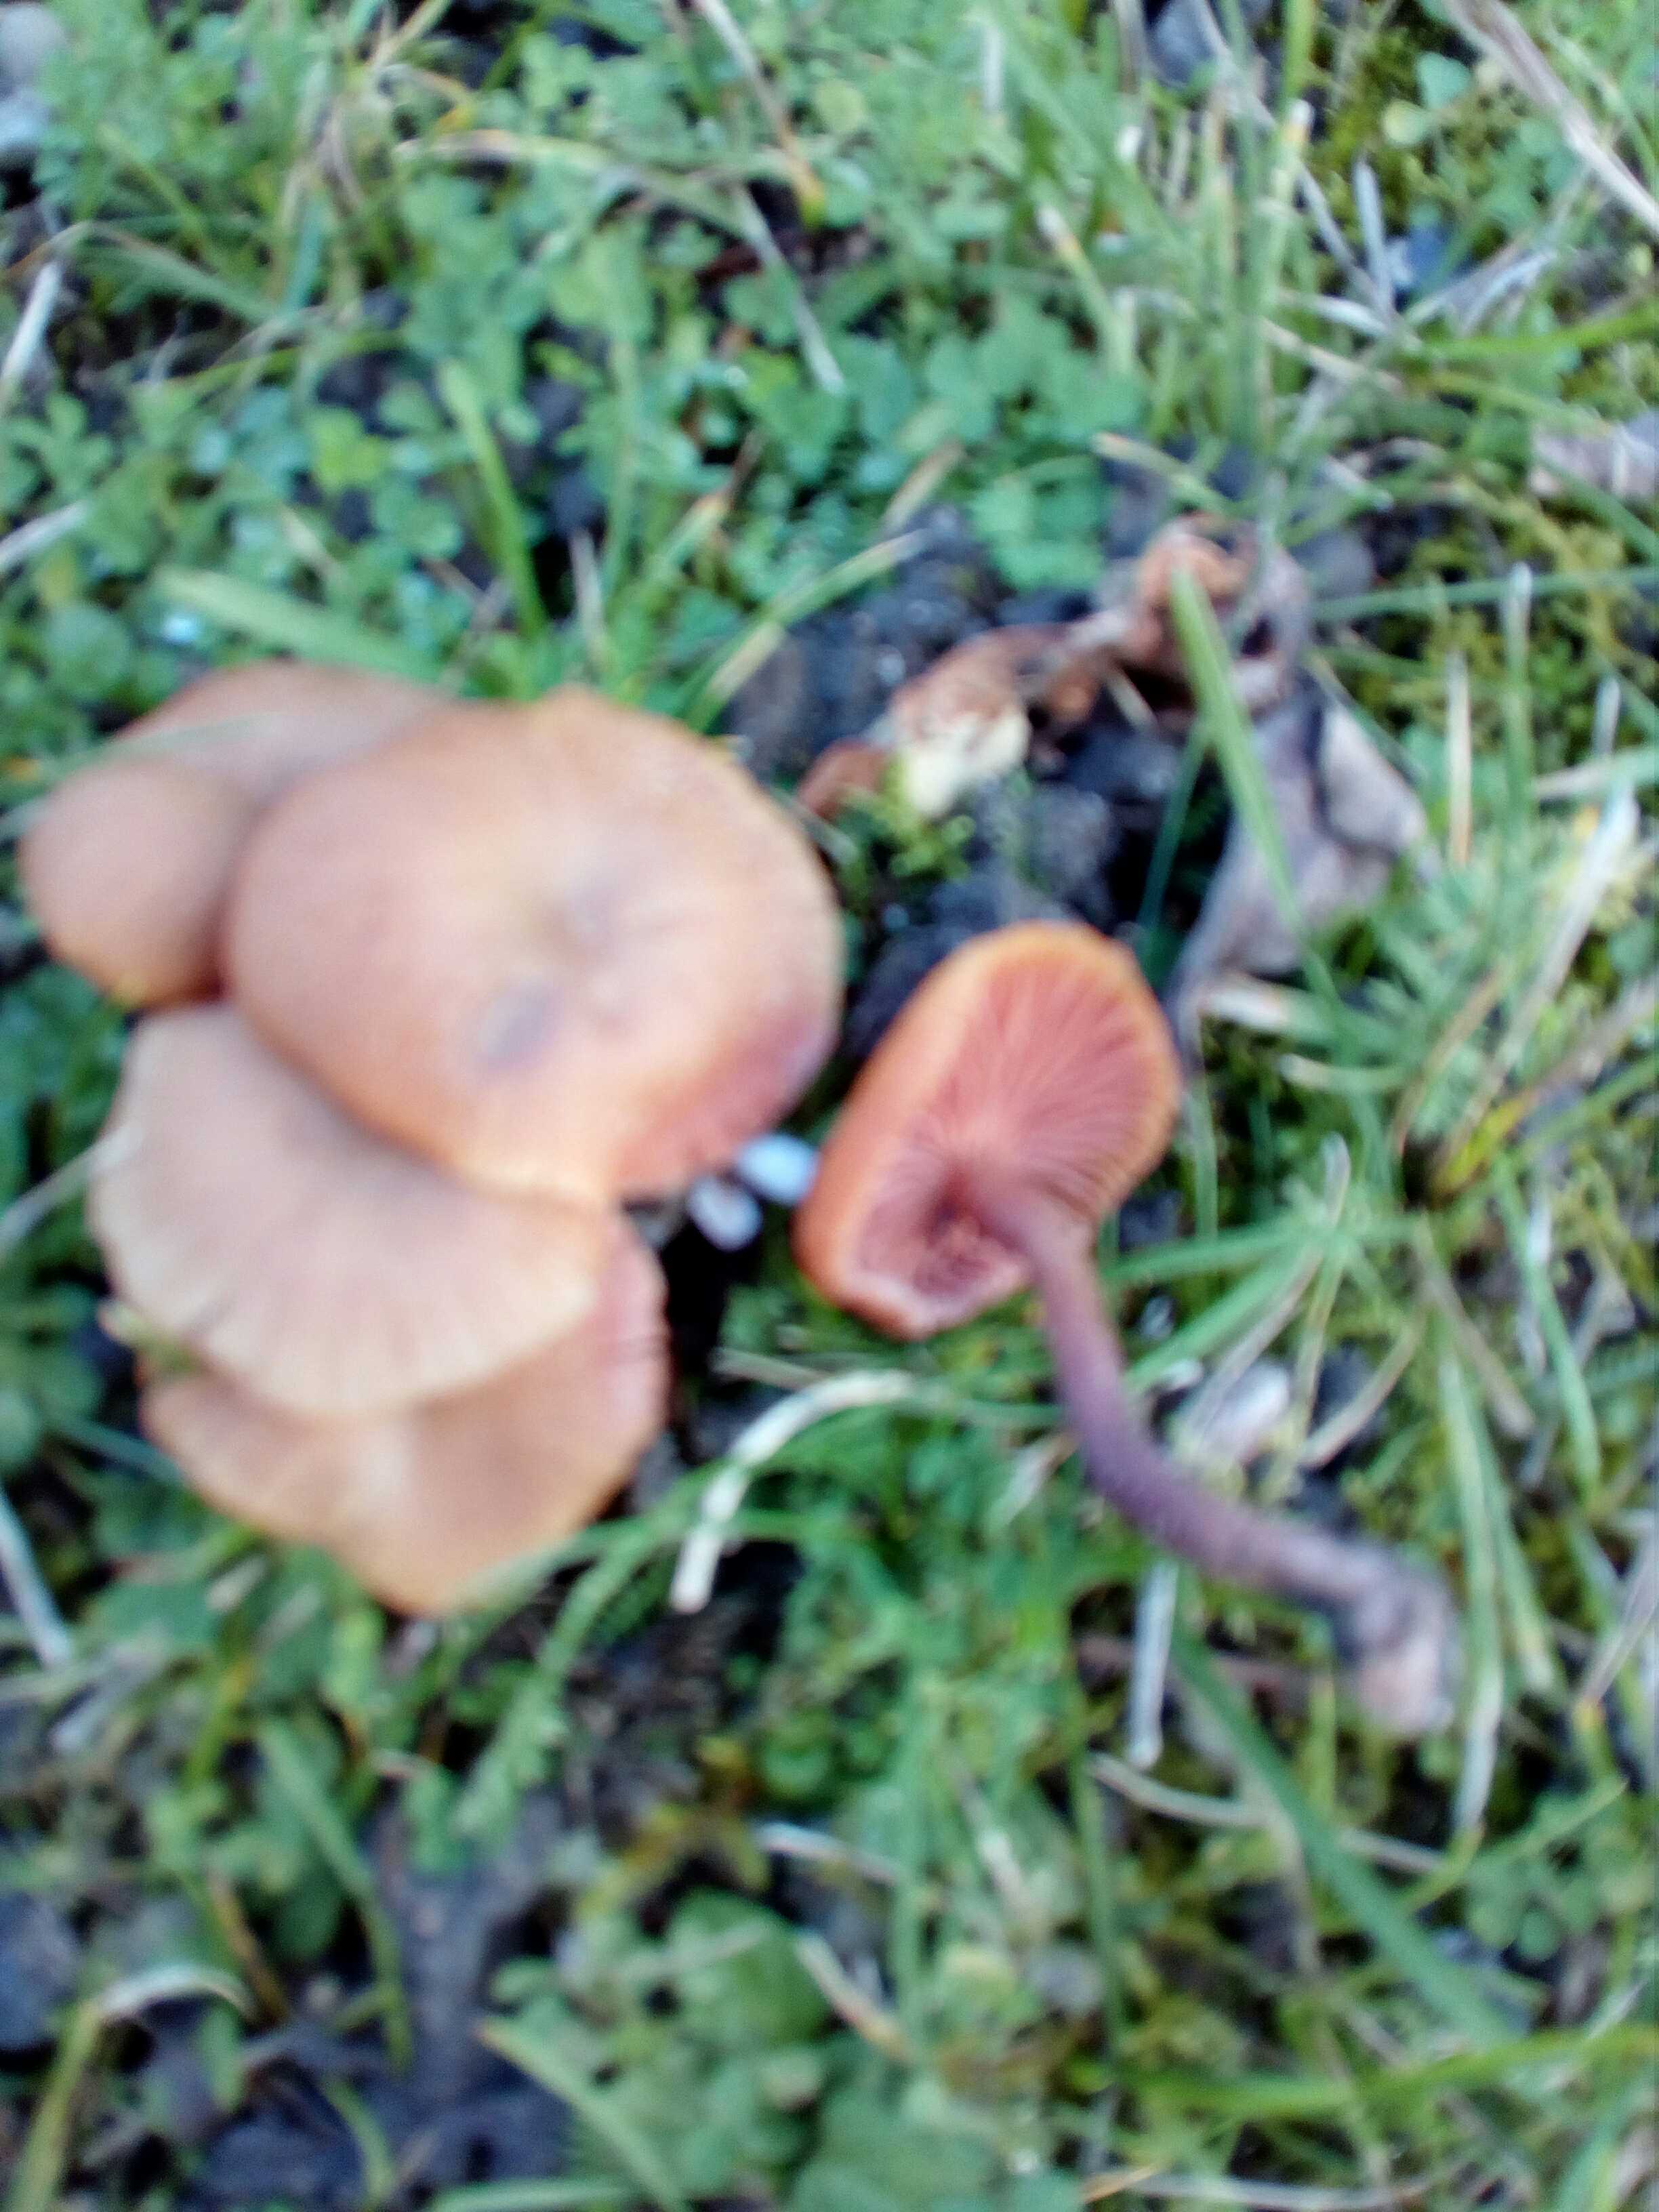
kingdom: Fungi
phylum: Basidiomycota
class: Agaricomycetes
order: Agaricales
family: Hydnangiaceae
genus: Laccaria
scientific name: Laccaria laccata
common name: rød ametysthat
